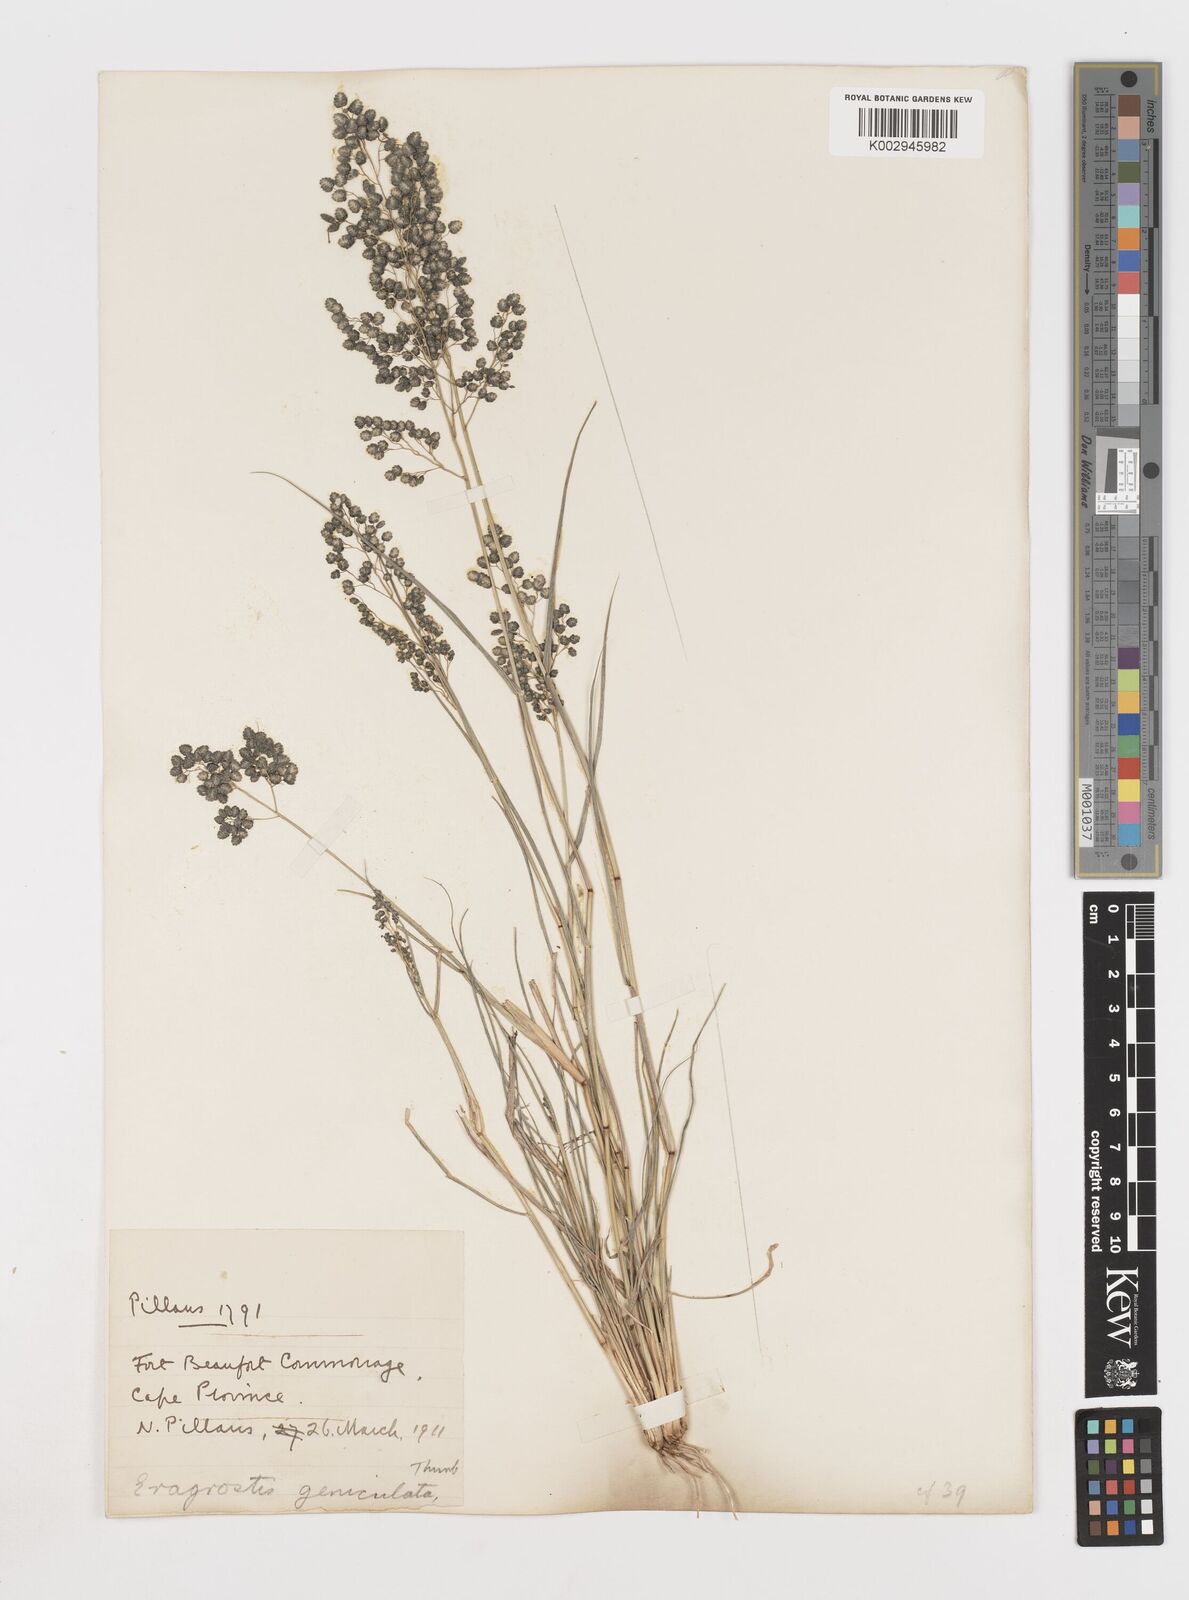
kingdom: Plantae
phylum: Tracheophyta
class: Liliopsida
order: Poales
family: Poaceae
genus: Eragrostis
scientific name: Eragrostis obtusa
